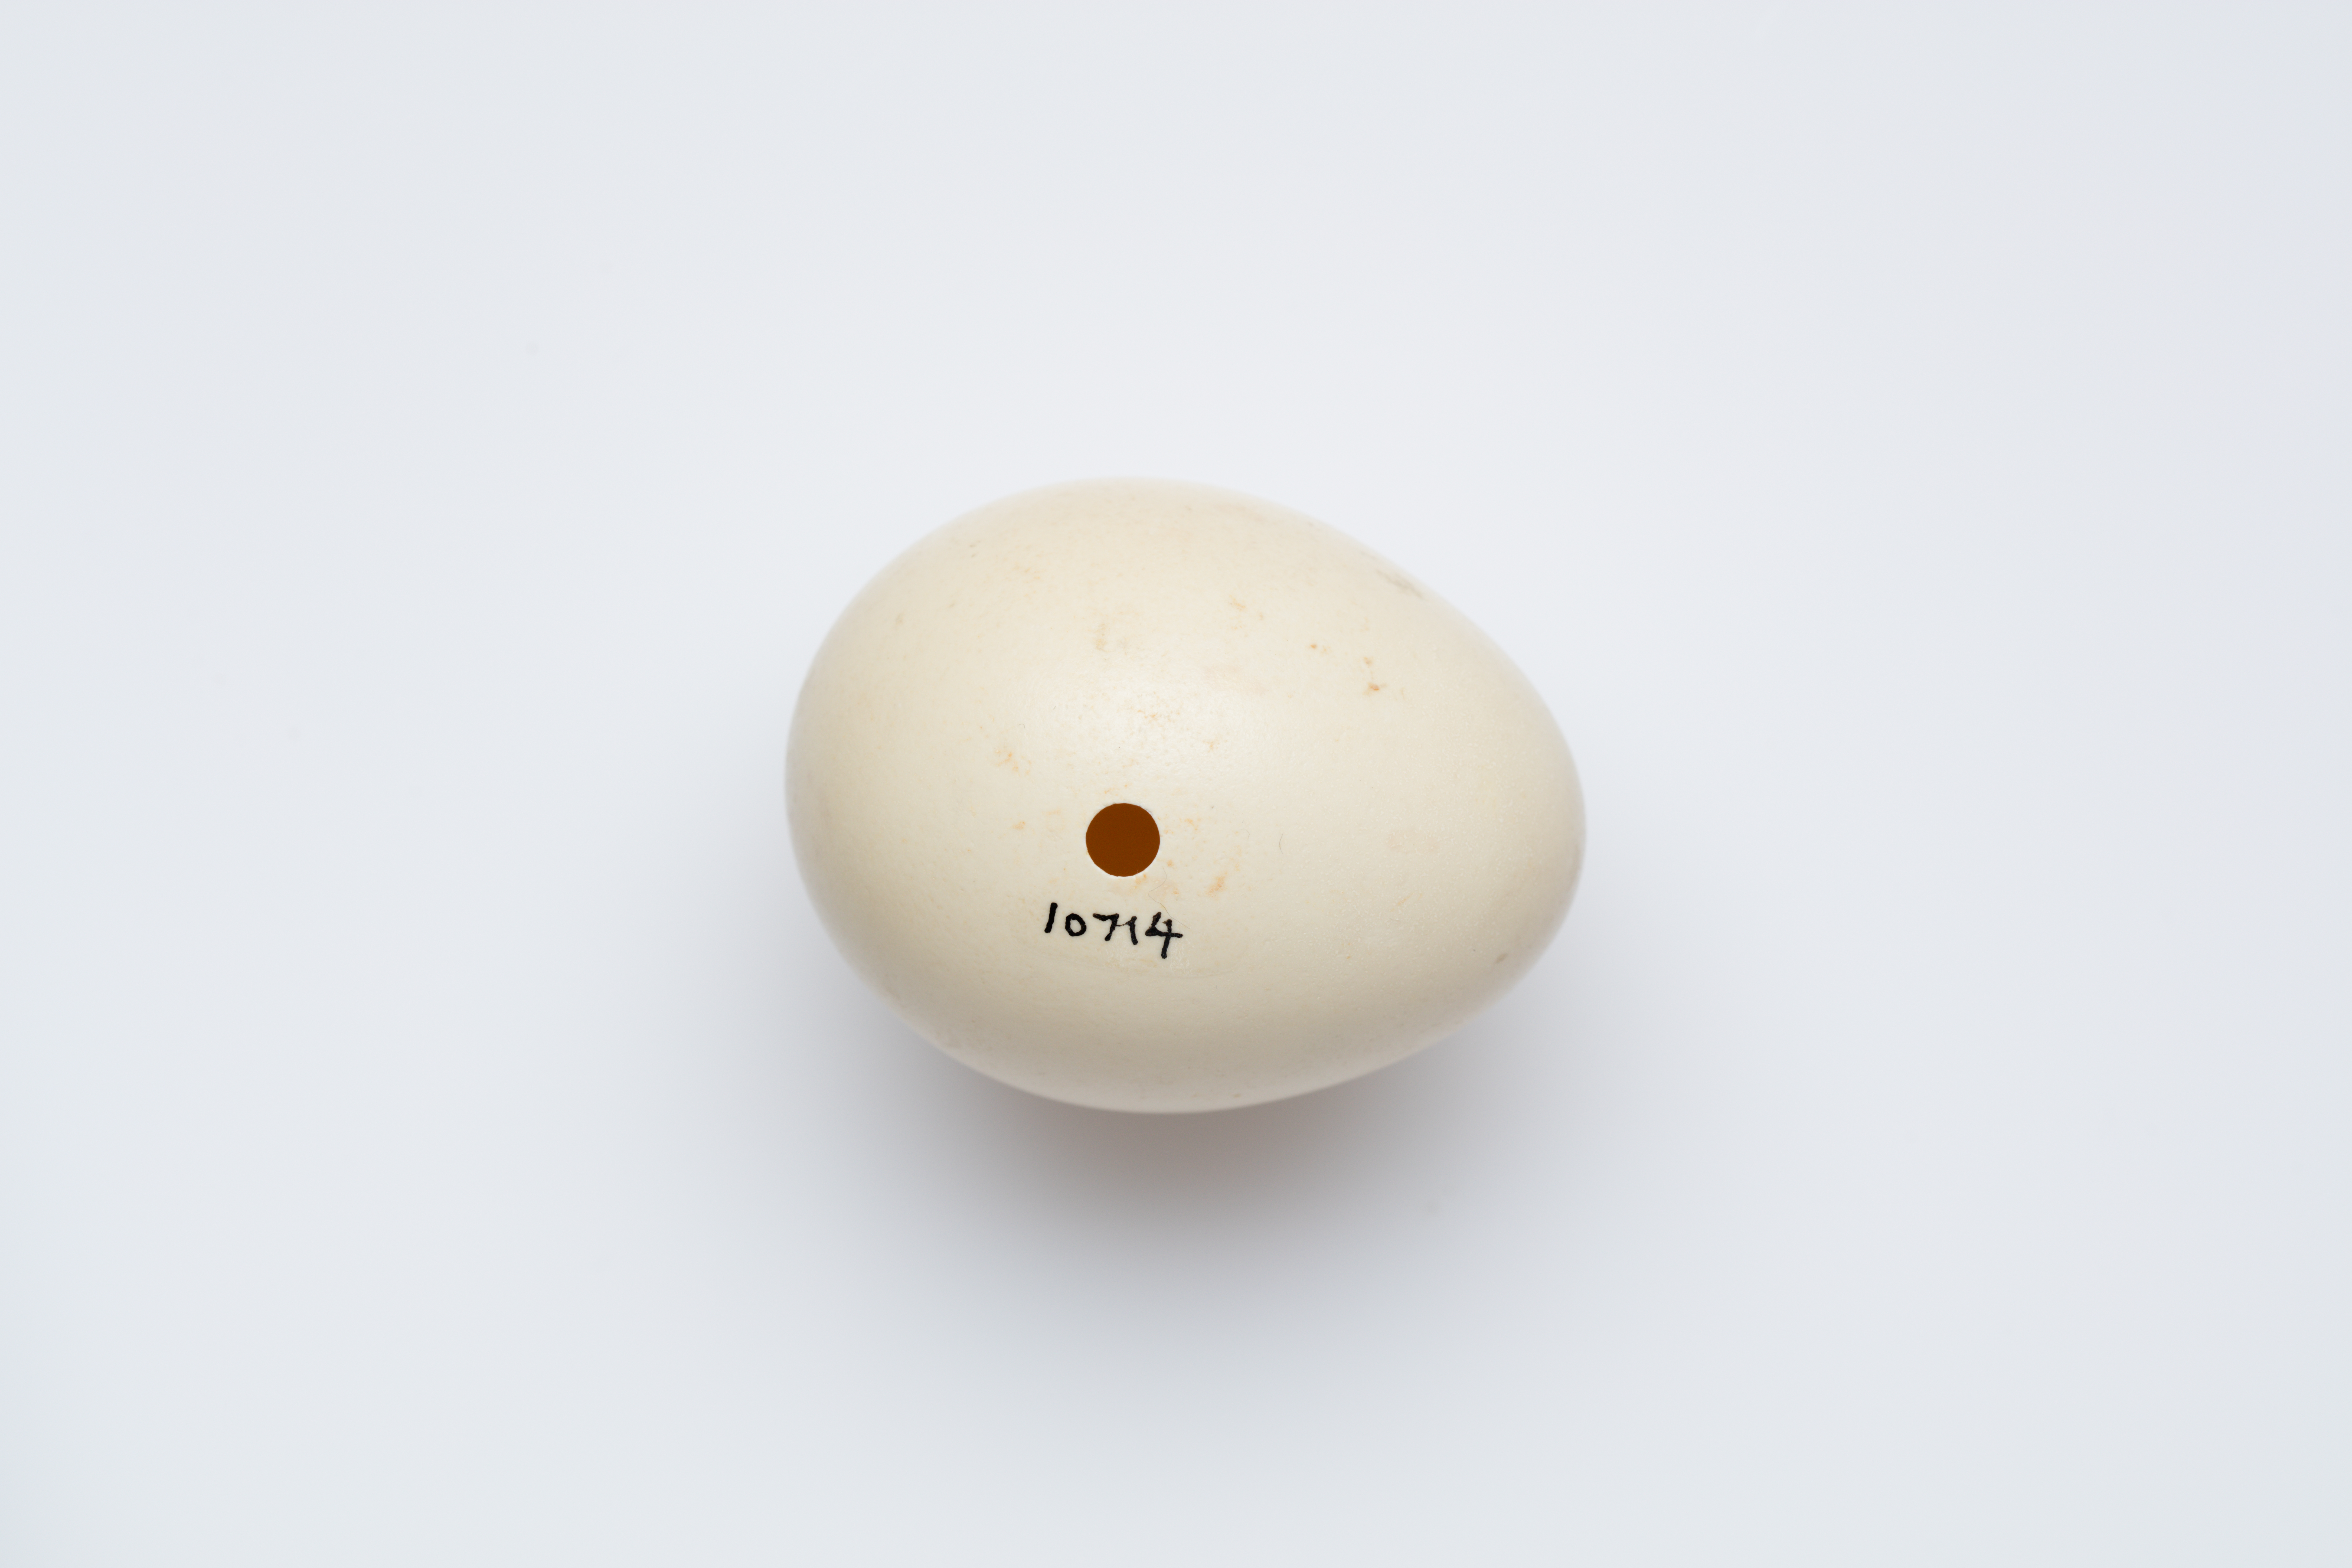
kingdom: Animalia
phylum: Chordata
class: Aves
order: Galliformes
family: Phasianidae
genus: Lophura
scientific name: Lophura nycthemera
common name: Silver pheasant
